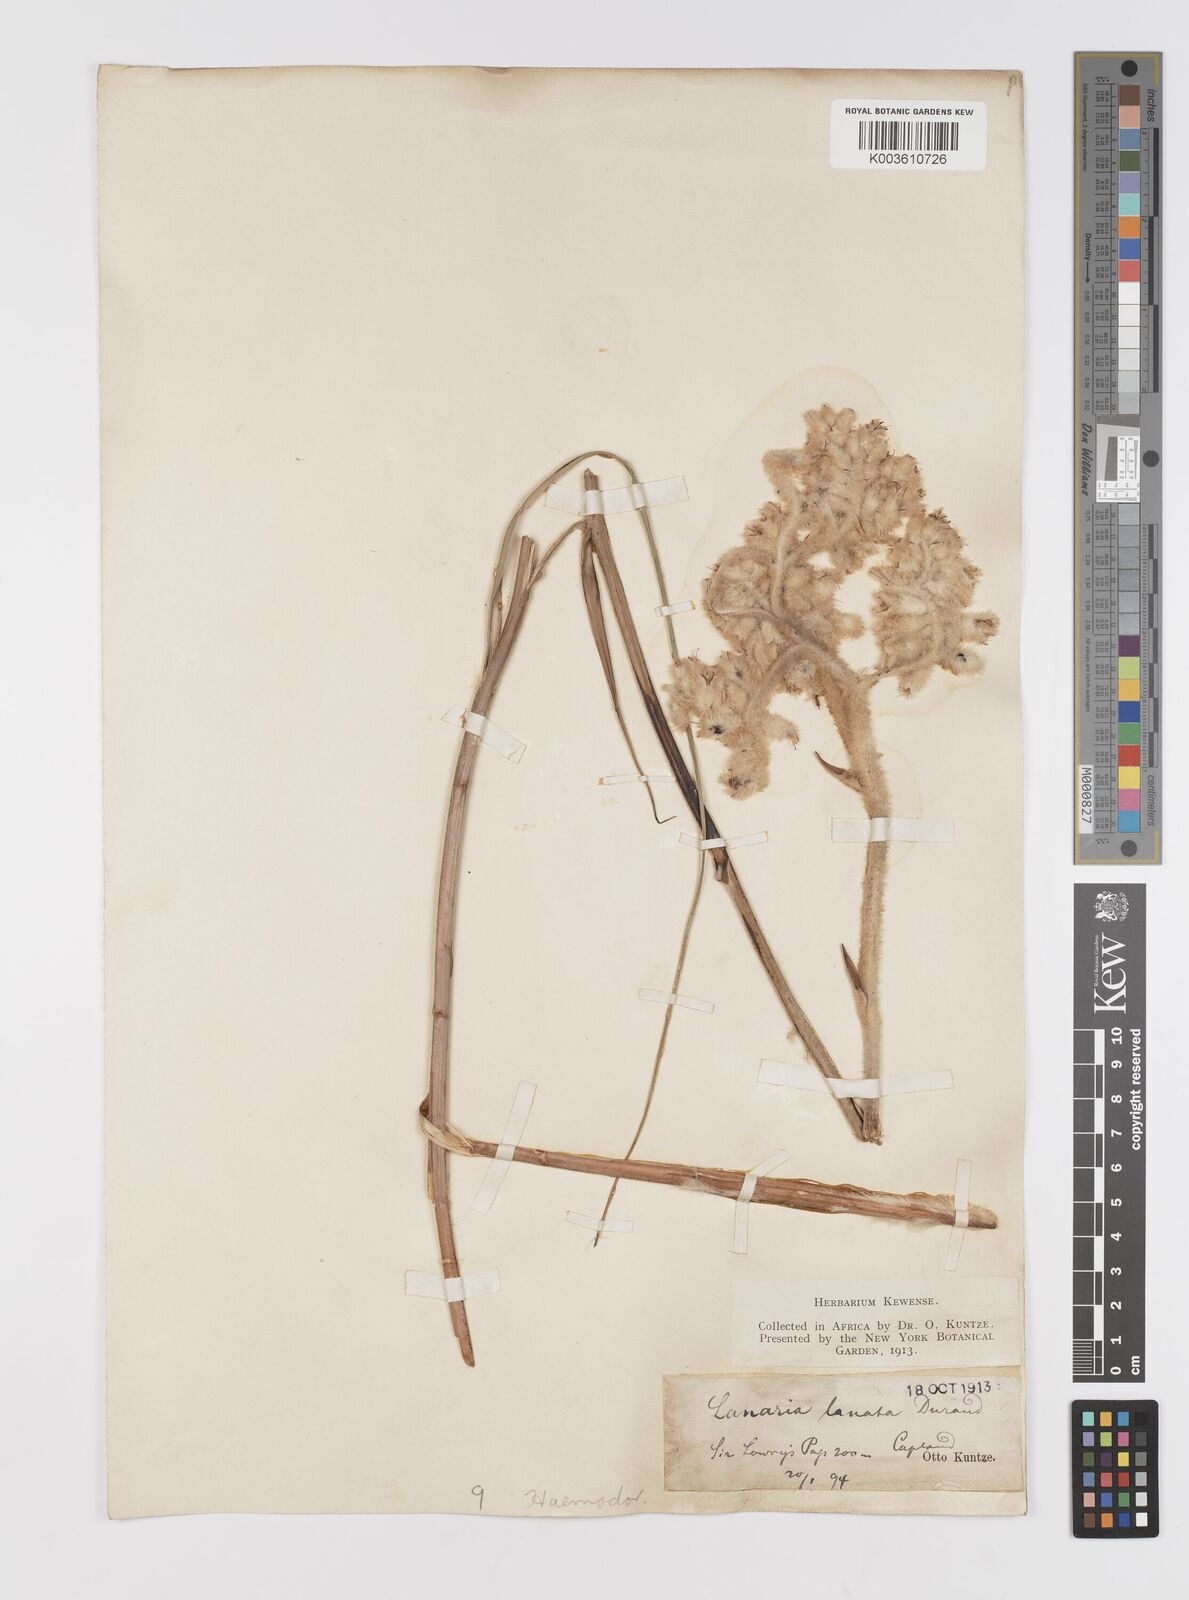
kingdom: Plantae
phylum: Tracheophyta
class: Liliopsida
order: Asparagales
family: Lanariaceae
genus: Lanaria
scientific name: Lanaria lanata
